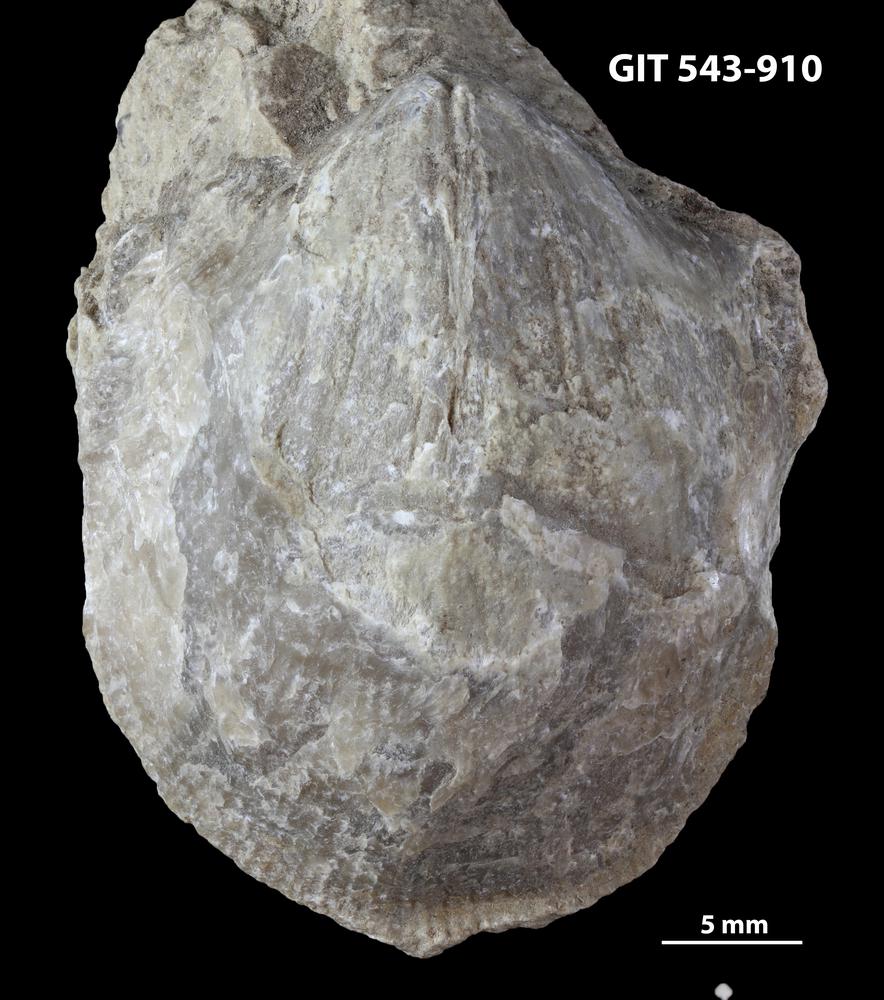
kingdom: Animalia
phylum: Brachiopoda
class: Rhynchonellata
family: Clitambonitidae
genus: Clitambonites
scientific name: Clitambonites
